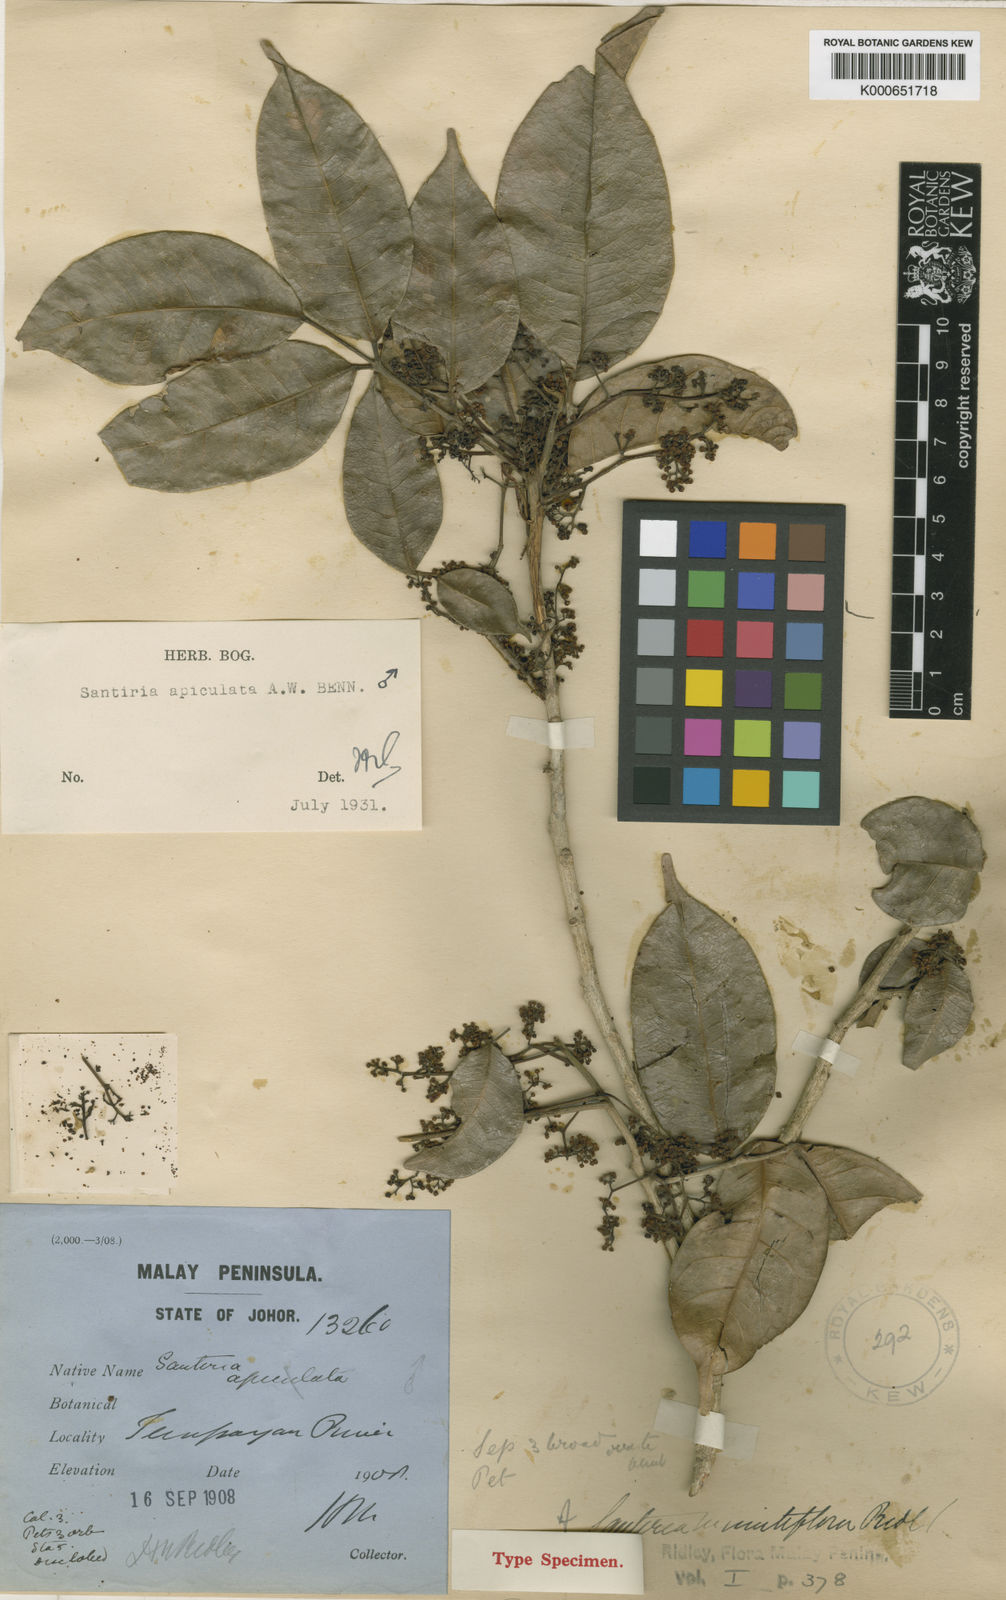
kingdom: Plantae
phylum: Tracheophyta
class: Magnoliopsida
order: Sapindales
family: Burseraceae
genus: Santiria
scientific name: Santiria apiculata
